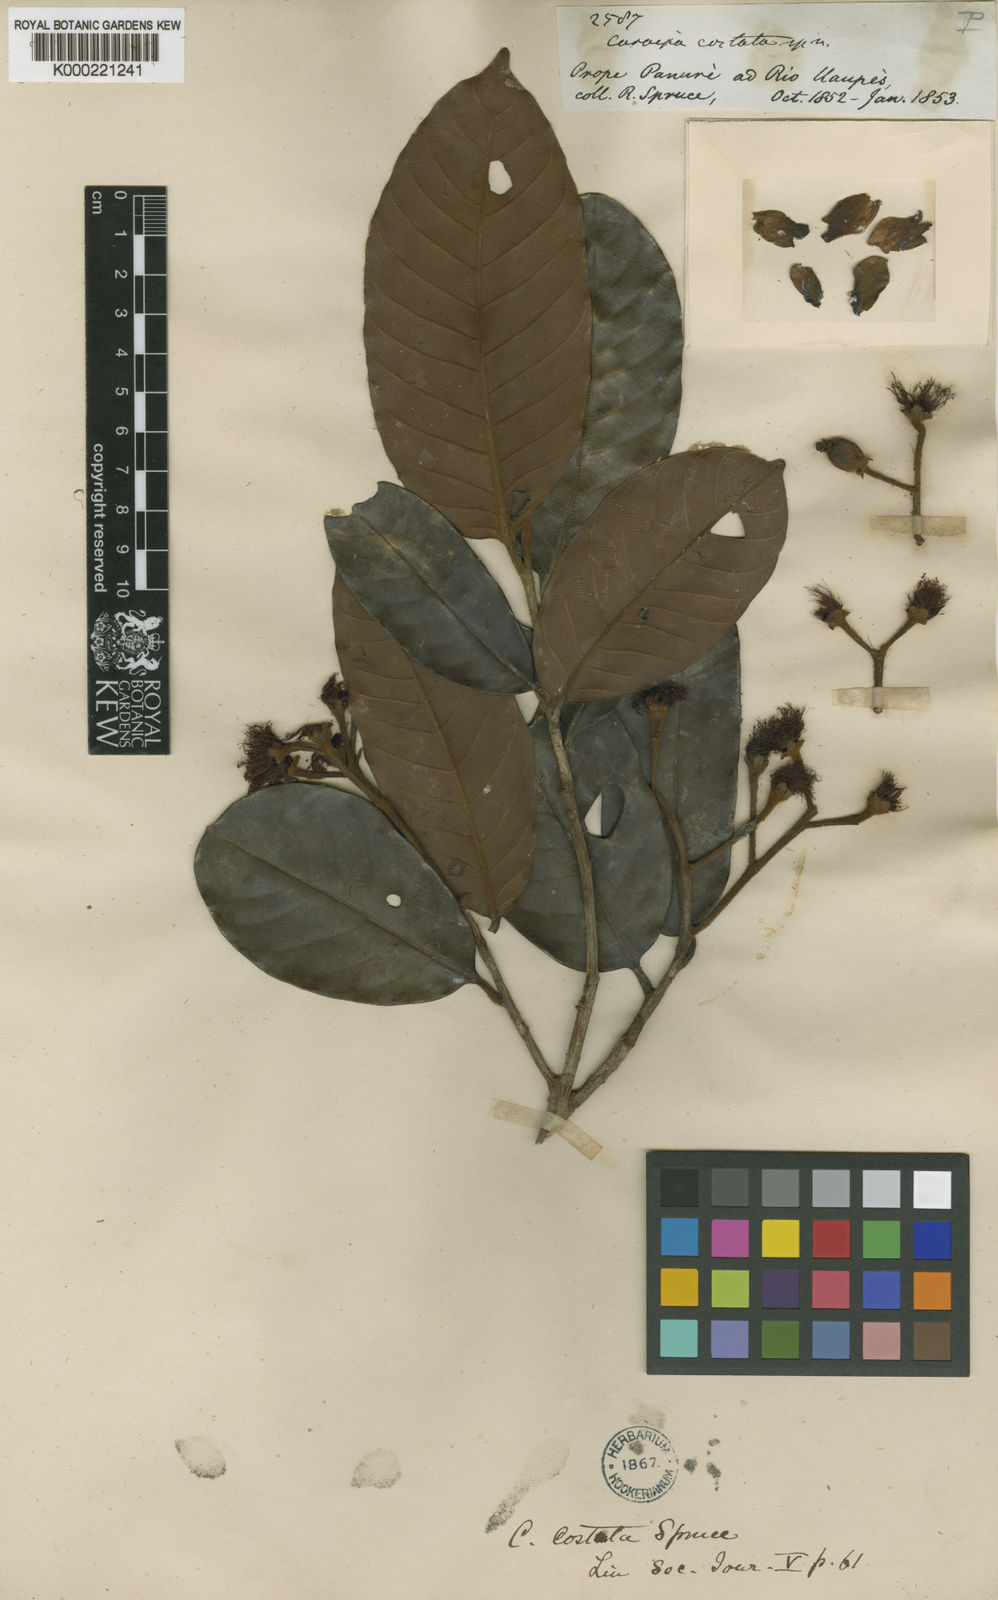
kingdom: Plantae
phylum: Tracheophyta
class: Magnoliopsida
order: Malpighiales
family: Calophyllaceae
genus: Caraipa
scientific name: Caraipa costata
